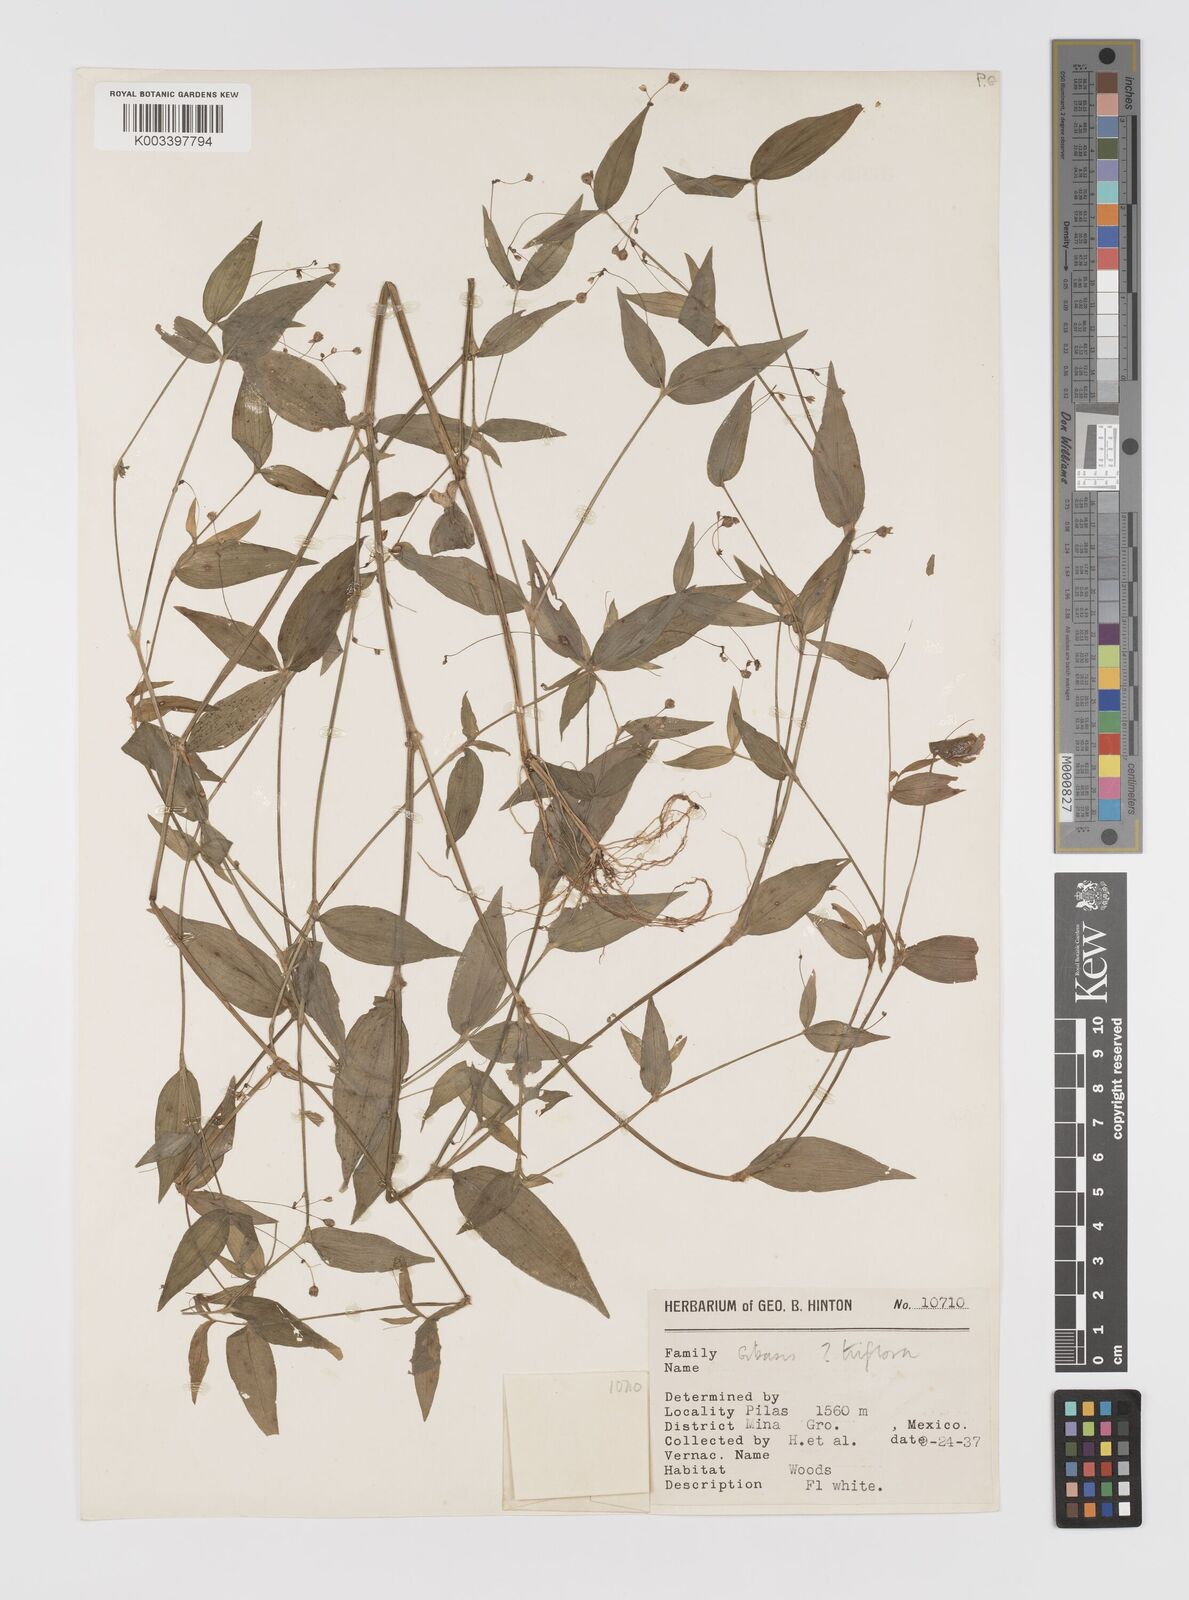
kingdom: Plantae
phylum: Tracheophyta
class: Liliopsida
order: Commelinales
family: Commelinaceae
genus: Gibasis
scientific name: Gibasis triflora
